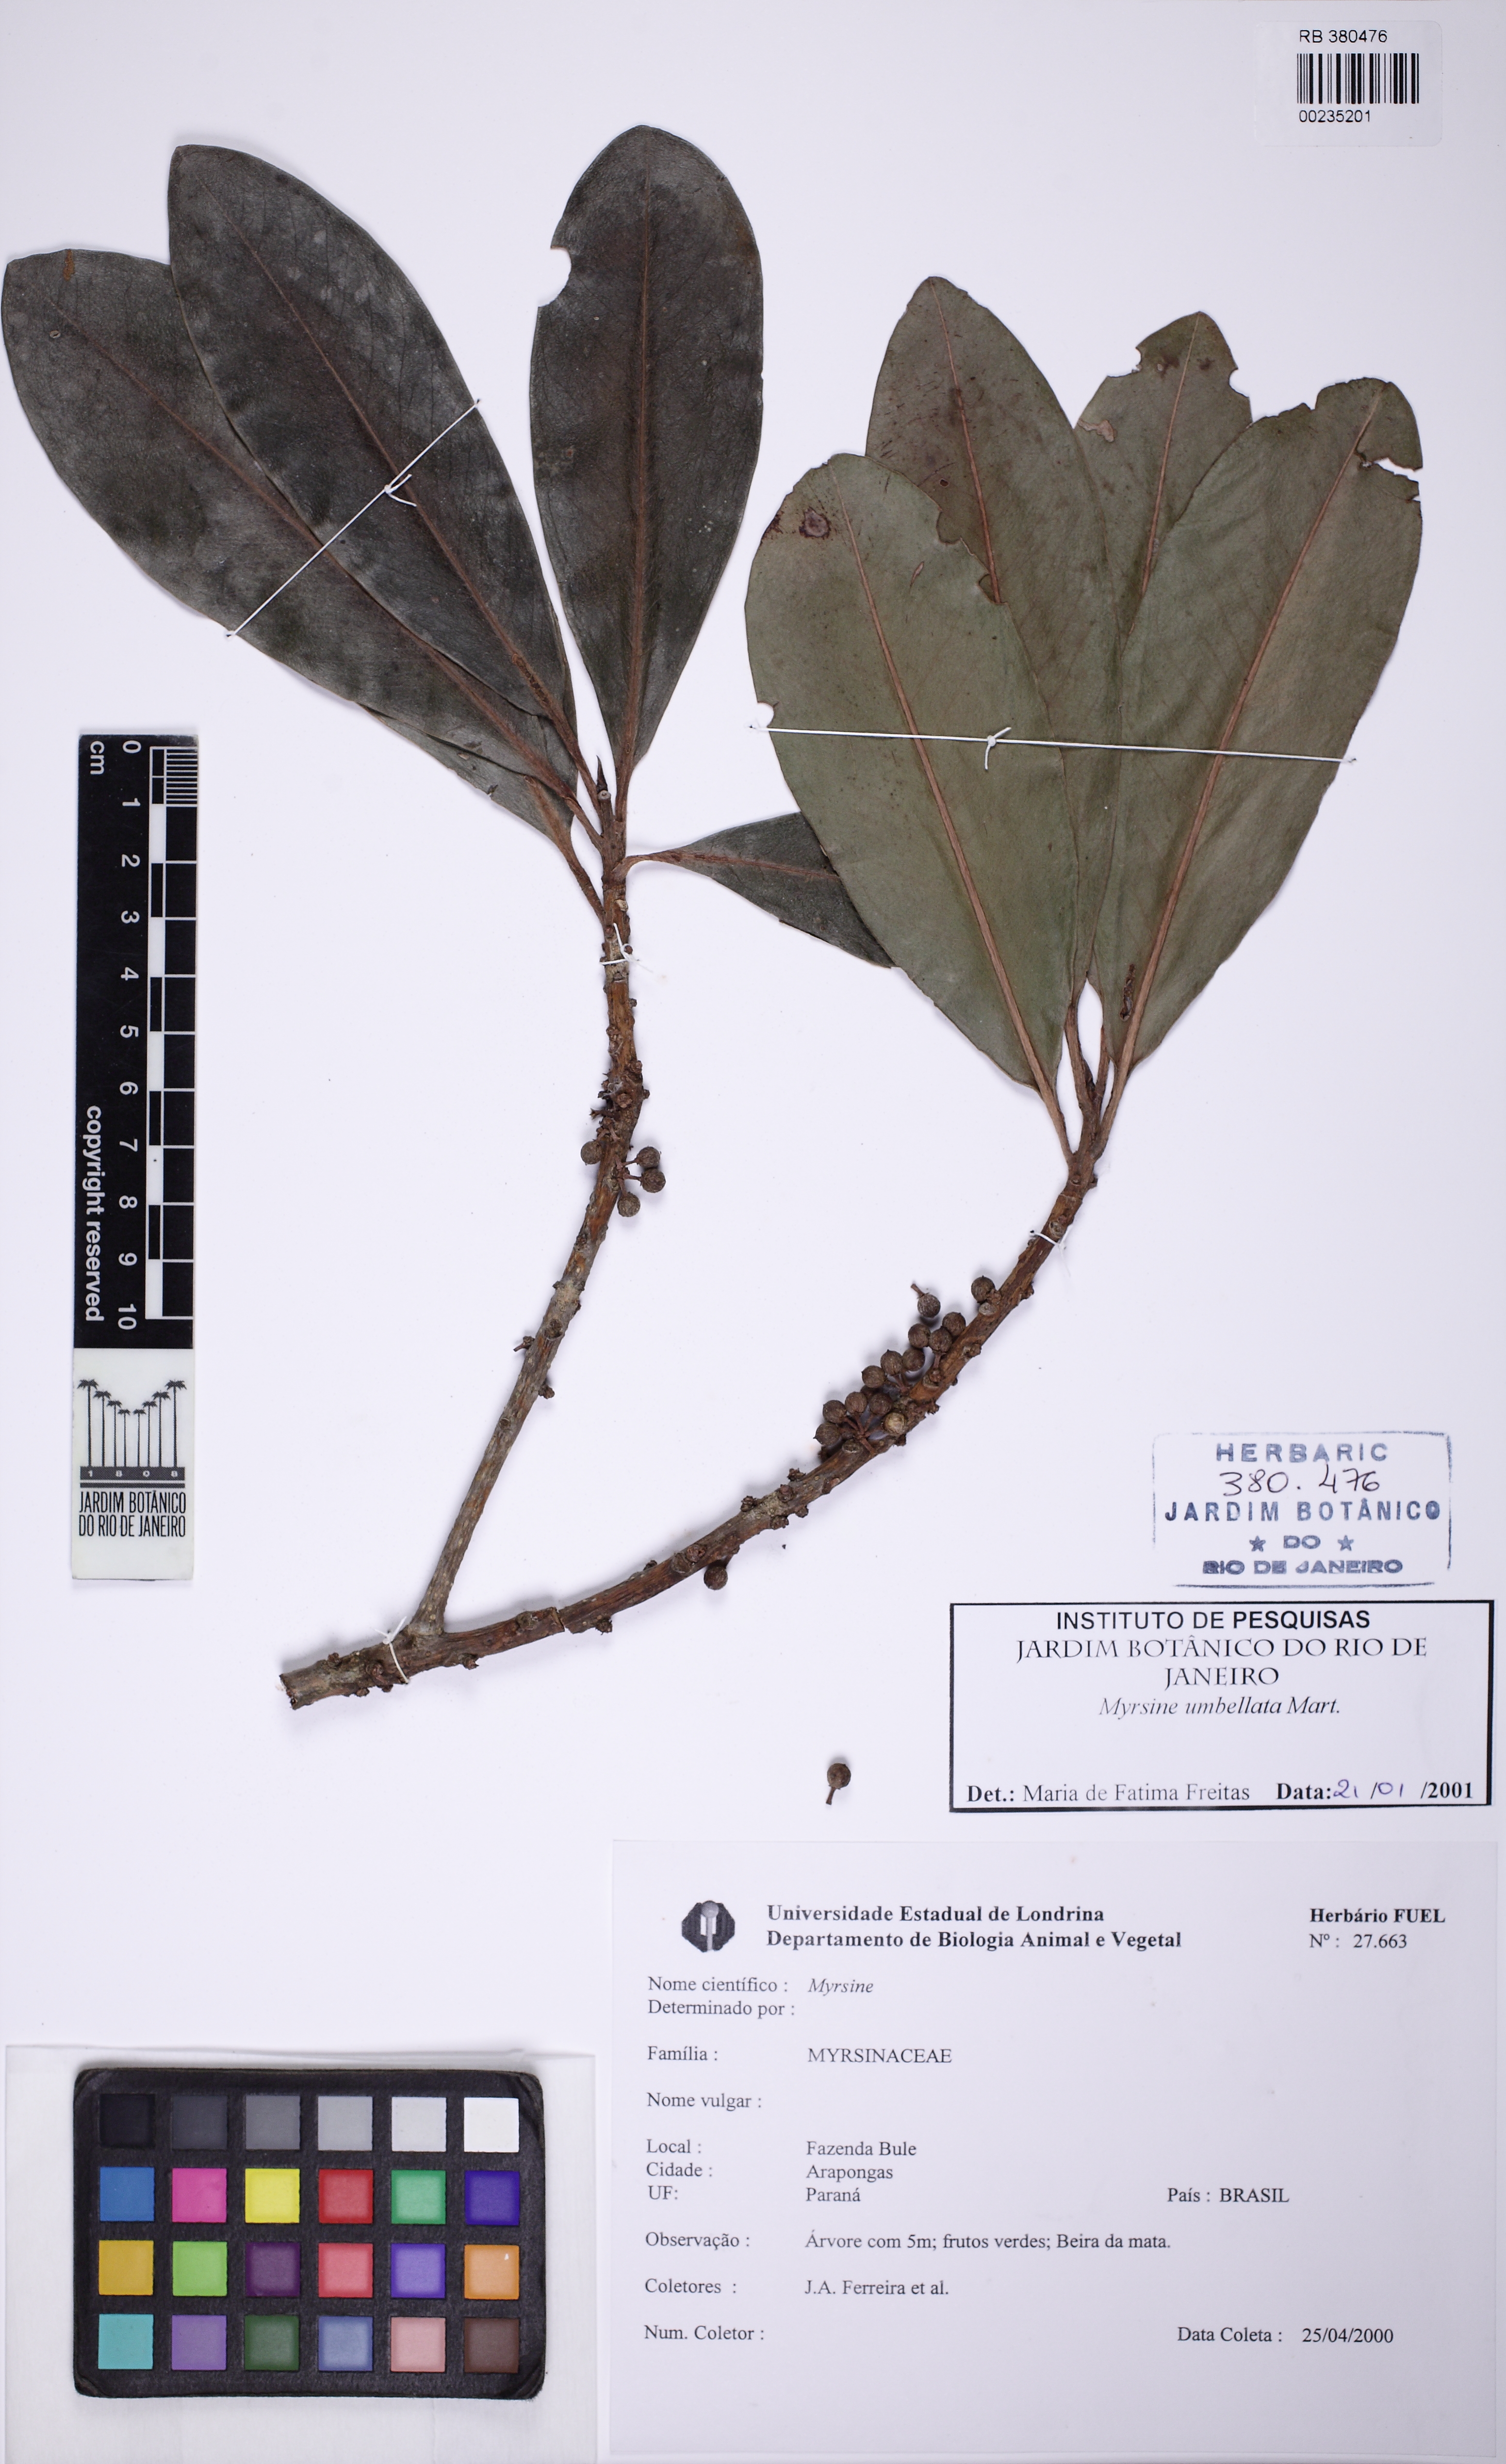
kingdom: Plantae
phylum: Tracheophyta
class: Magnoliopsida
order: Ericales
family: Primulaceae
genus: Myrsine
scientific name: Myrsine umbellata
